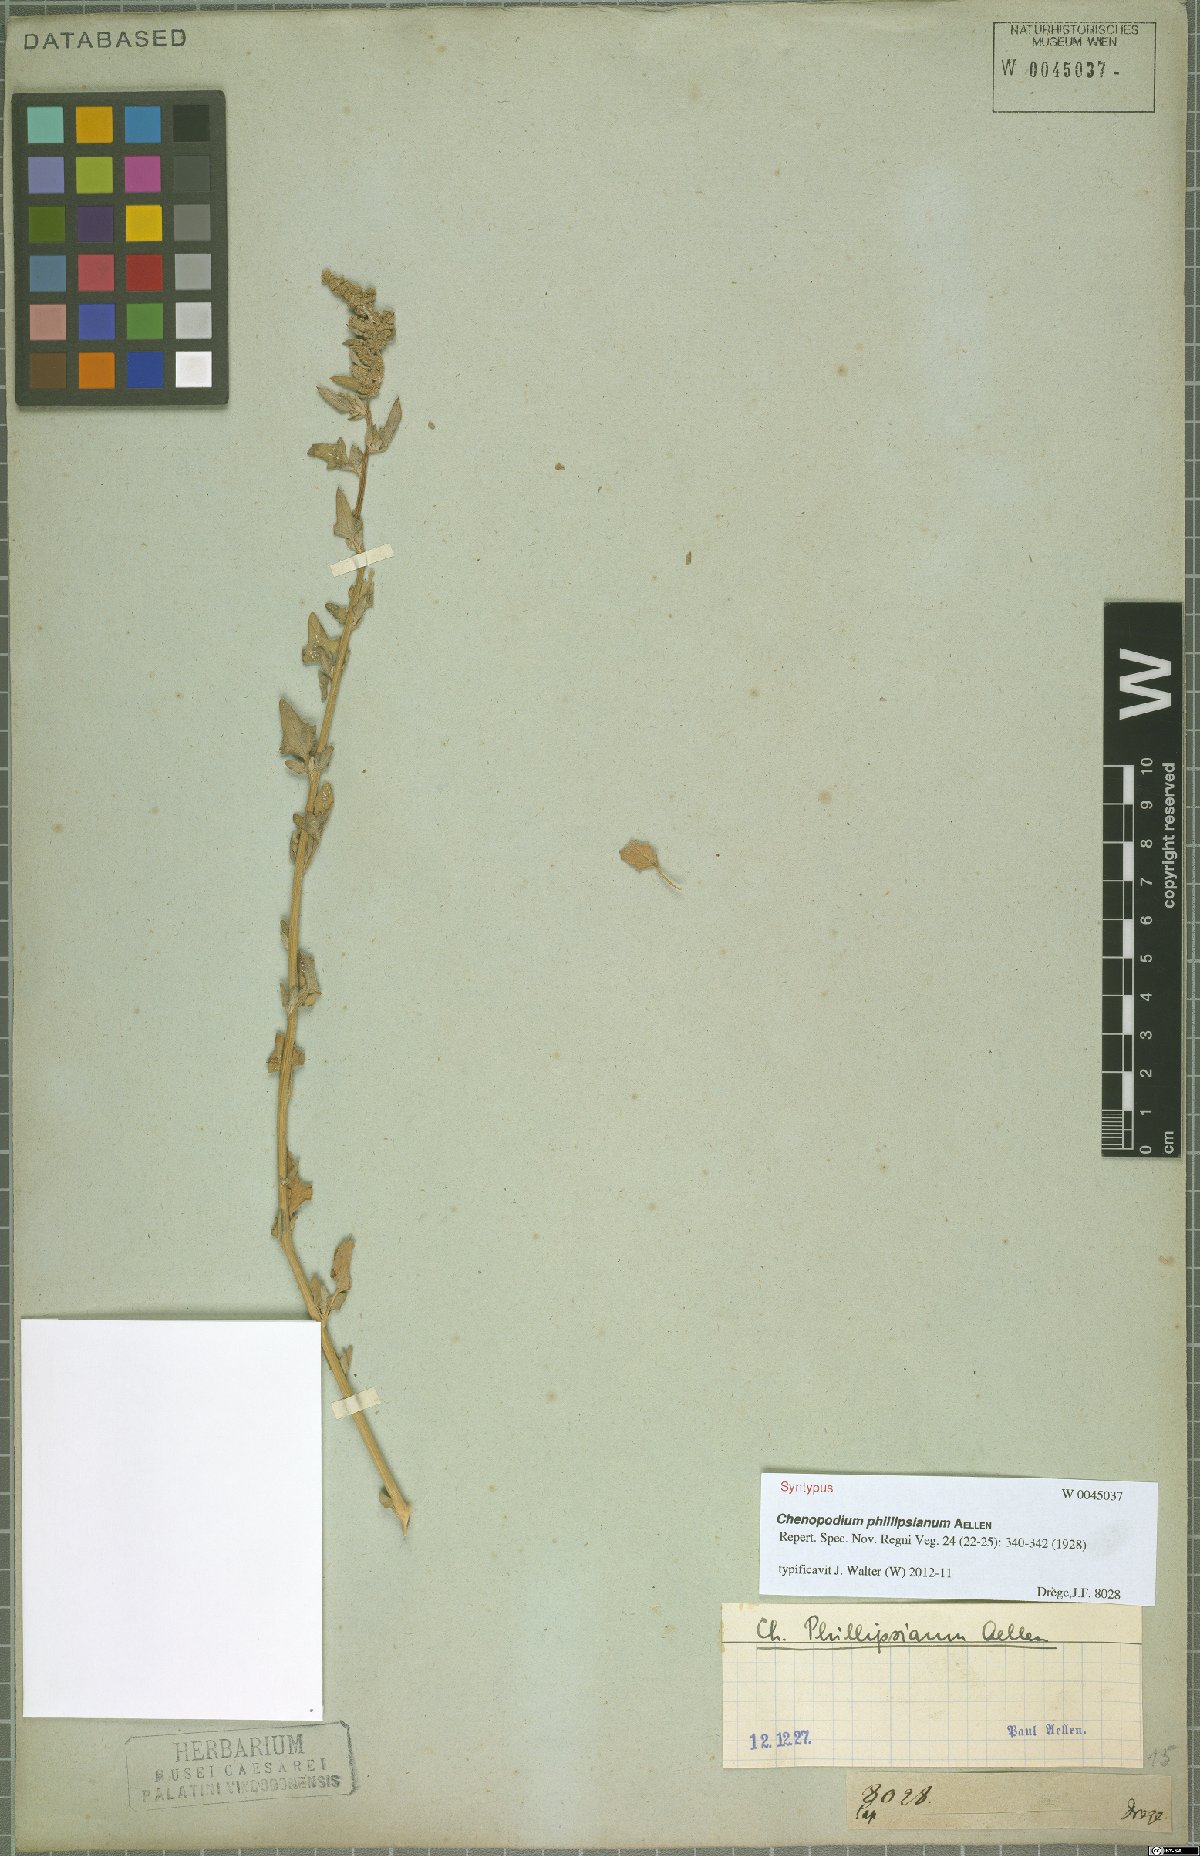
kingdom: Plantae
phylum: Tracheophyta
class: Magnoliopsida
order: Caryophyllales
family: Amaranthaceae
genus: Chenopodium
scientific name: Chenopodium phillipsianum
